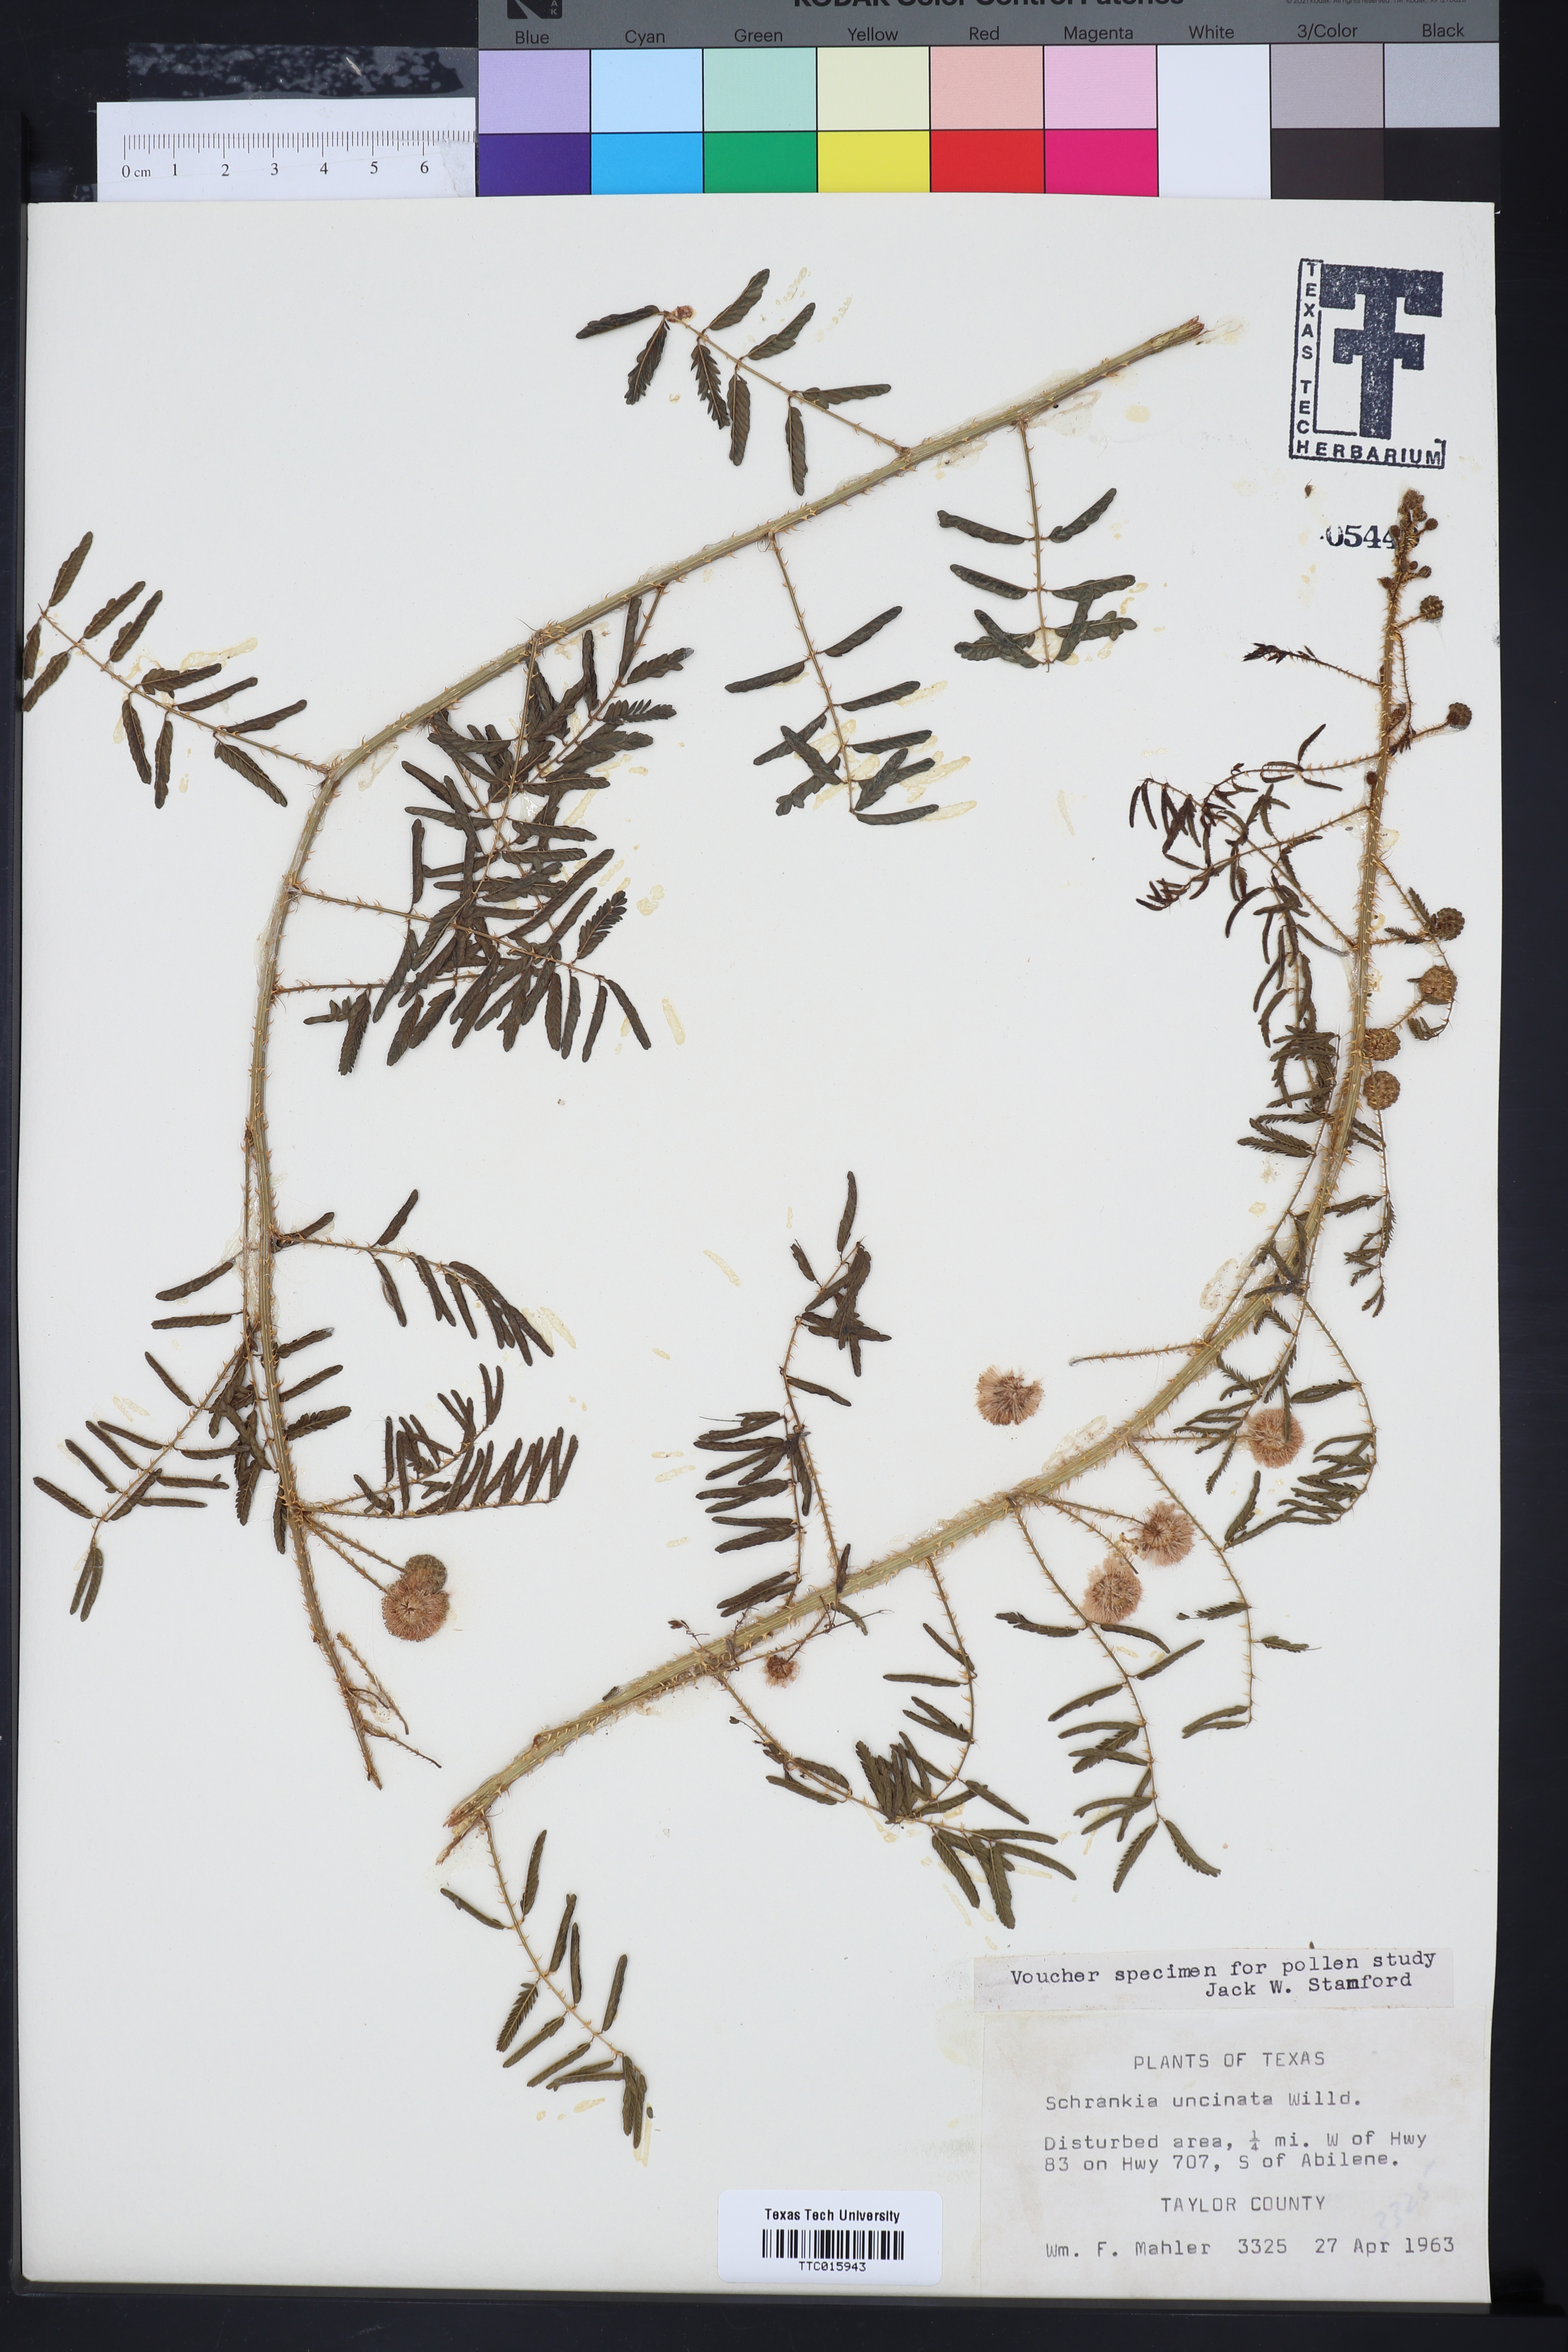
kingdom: Plantae
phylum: Tracheophyta
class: Magnoliopsida
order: Fabales
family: Fabaceae
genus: Mimosa
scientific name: Mimosa quadrivalvis
